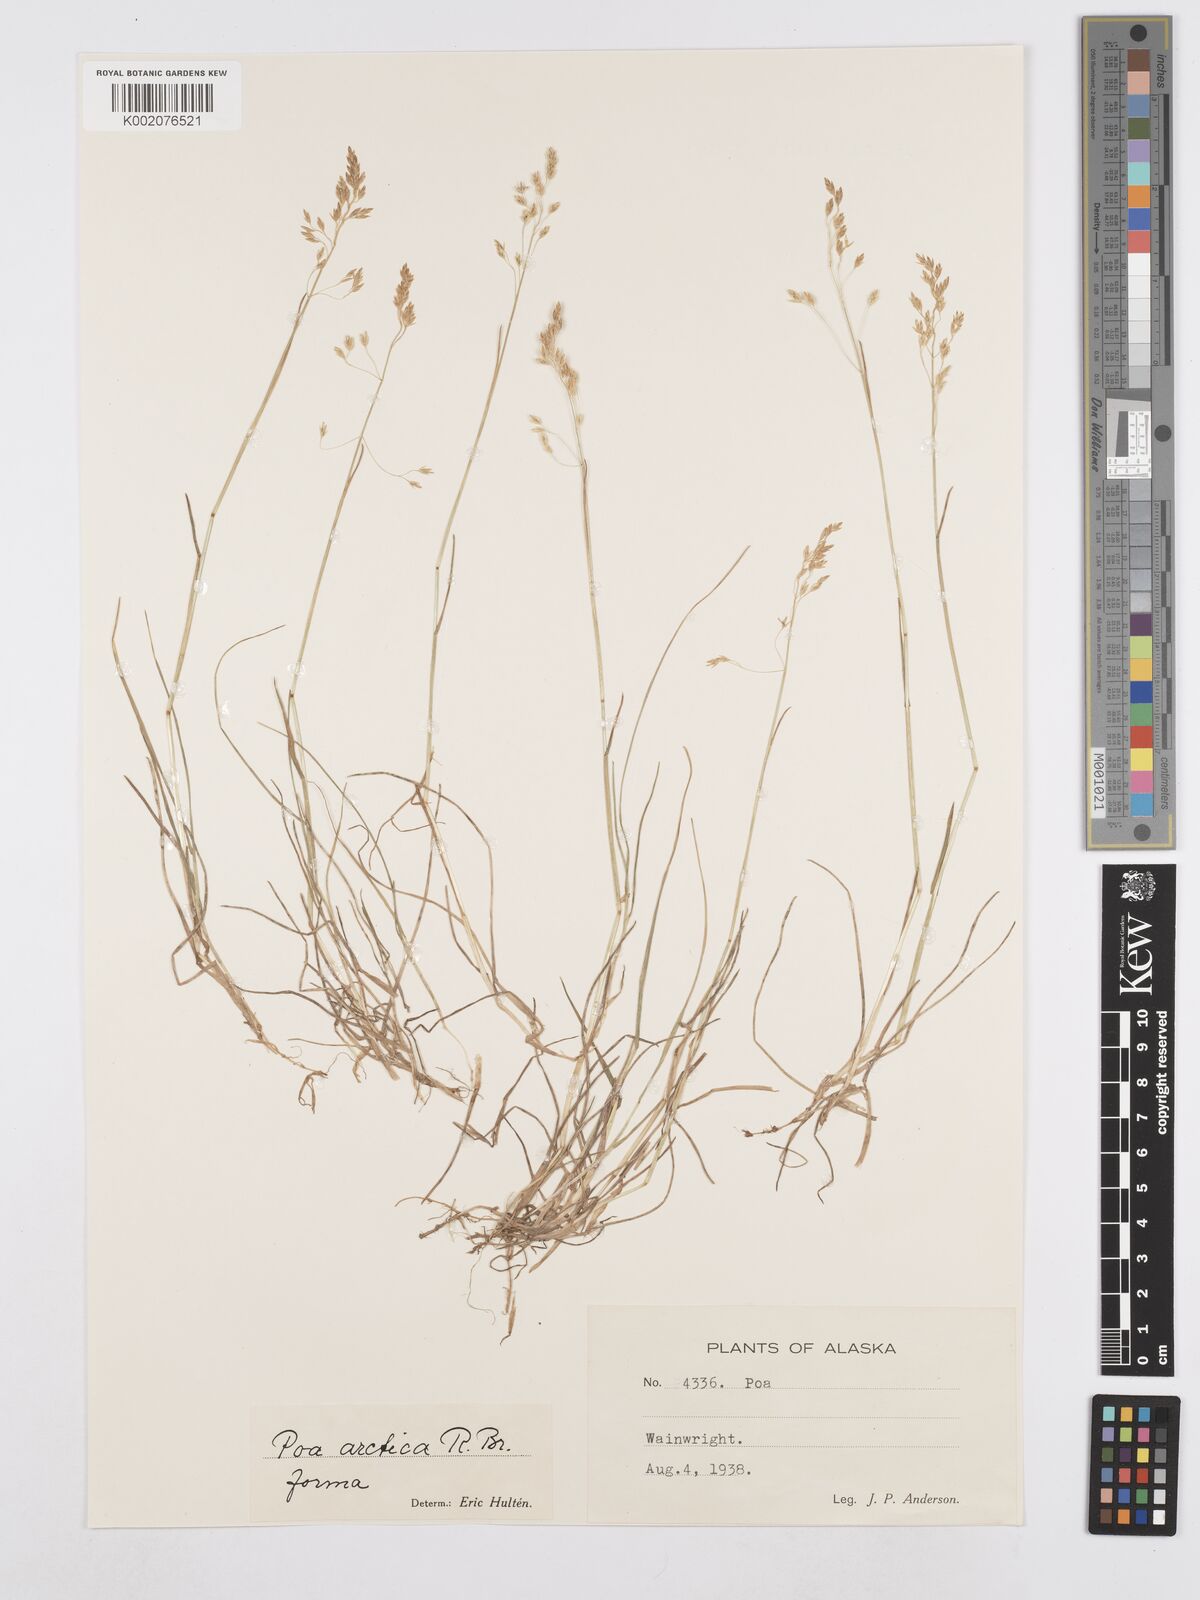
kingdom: Plantae
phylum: Tracheophyta
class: Liliopsida
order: Poales
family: Poaceae
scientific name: Poaceae
